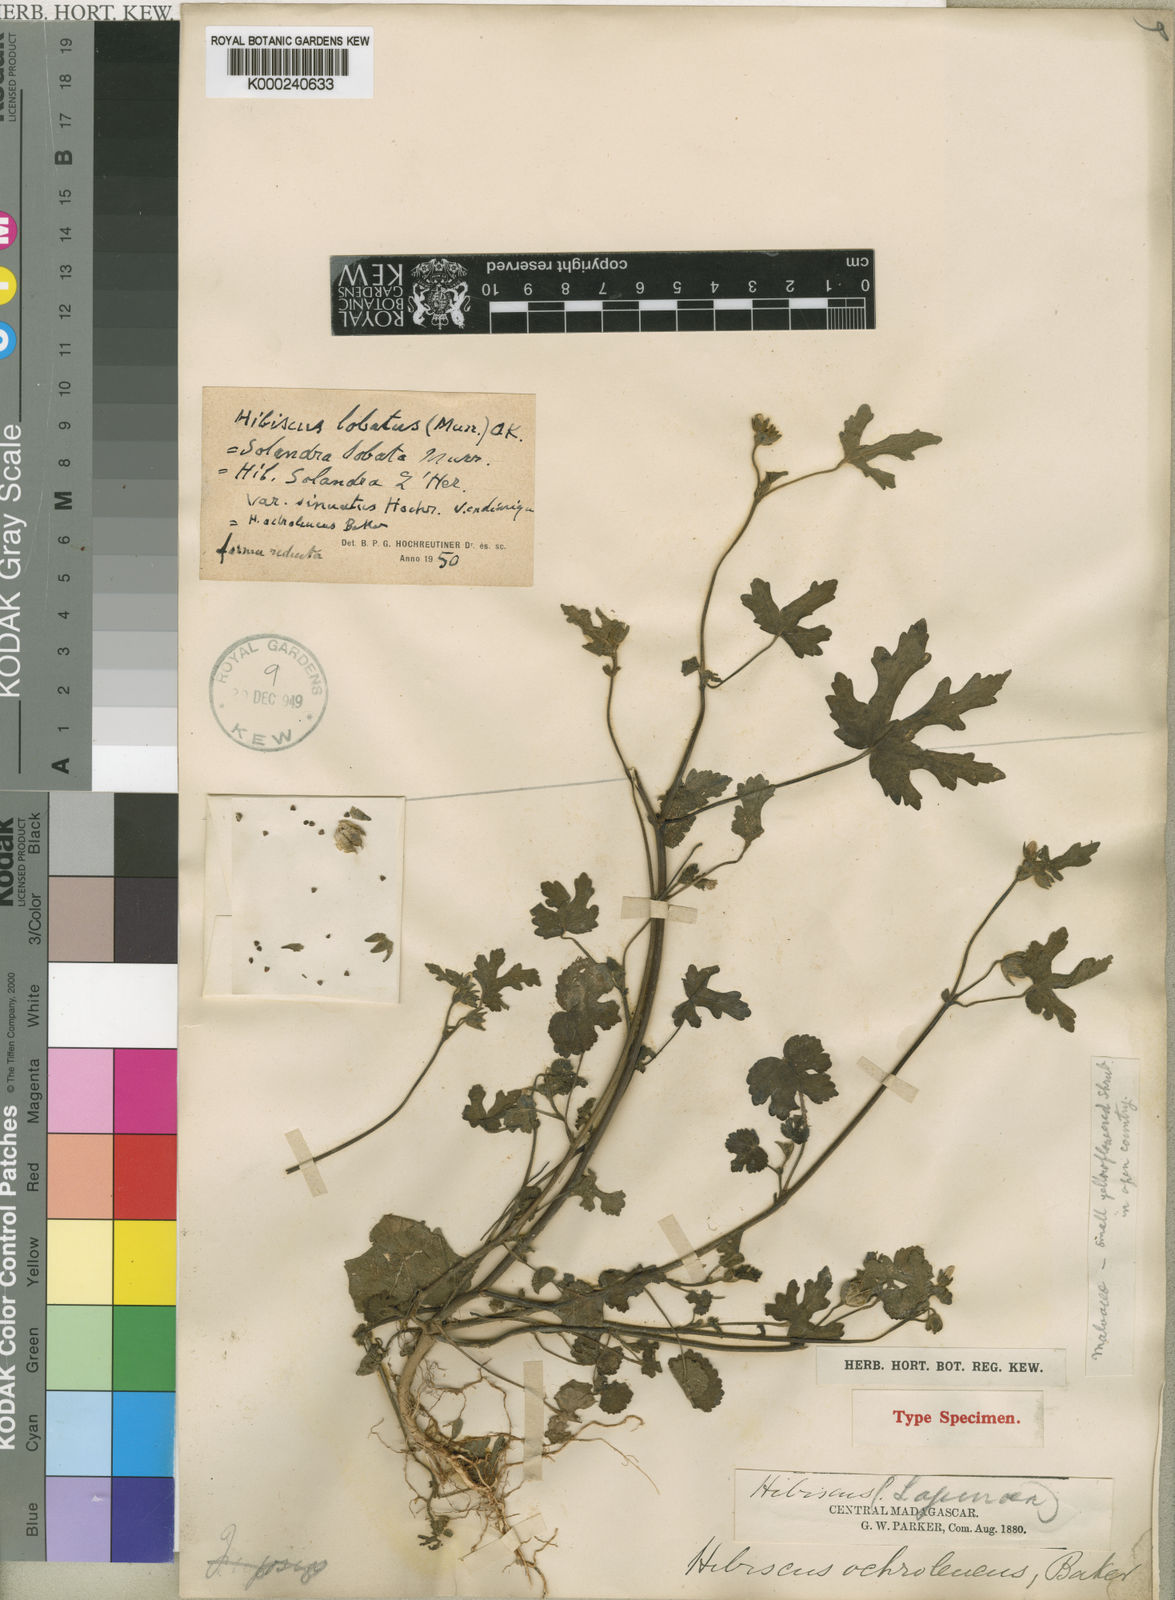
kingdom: Plantae
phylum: Tracheophyta
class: Magnoliopsida
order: Malvales
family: Malvaceae
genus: Hibiscus
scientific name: Hibiscus
